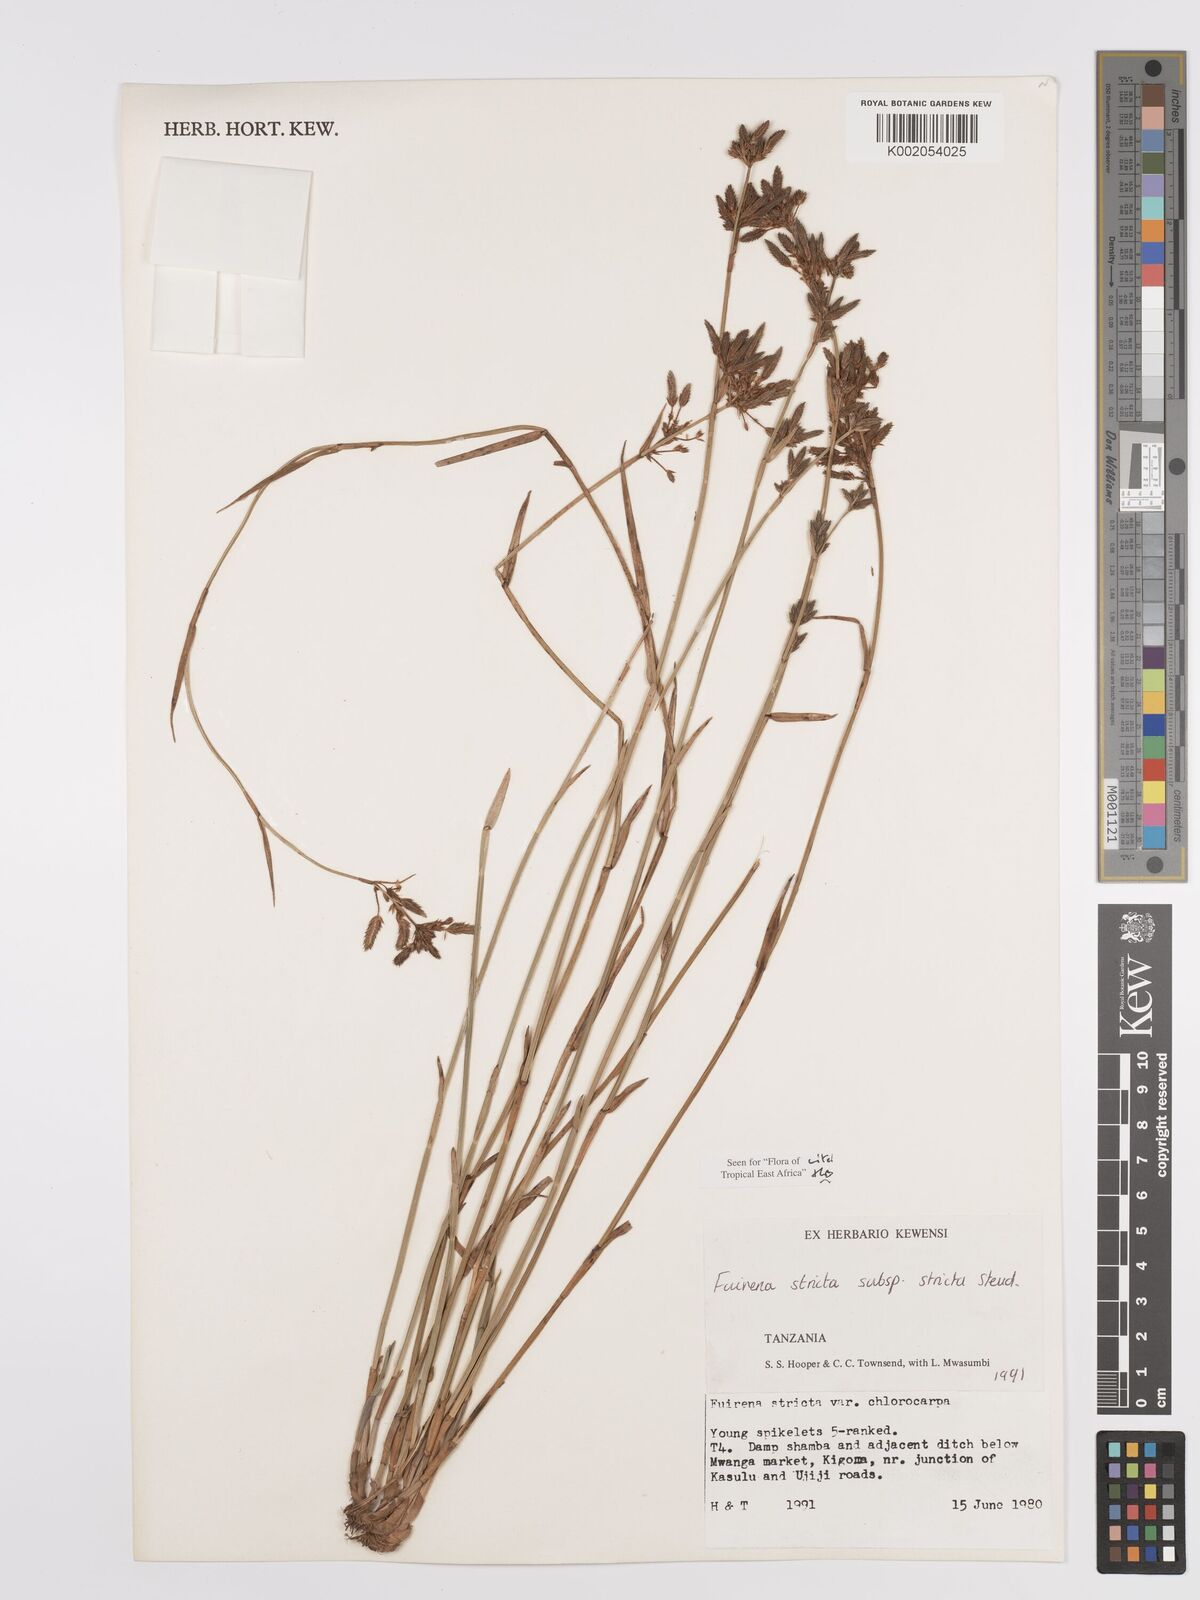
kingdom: Plantae
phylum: Tracheophyta
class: Liliopsida
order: Poales
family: Cyperaceae
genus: Fuirena
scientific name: Fuirena stricta
